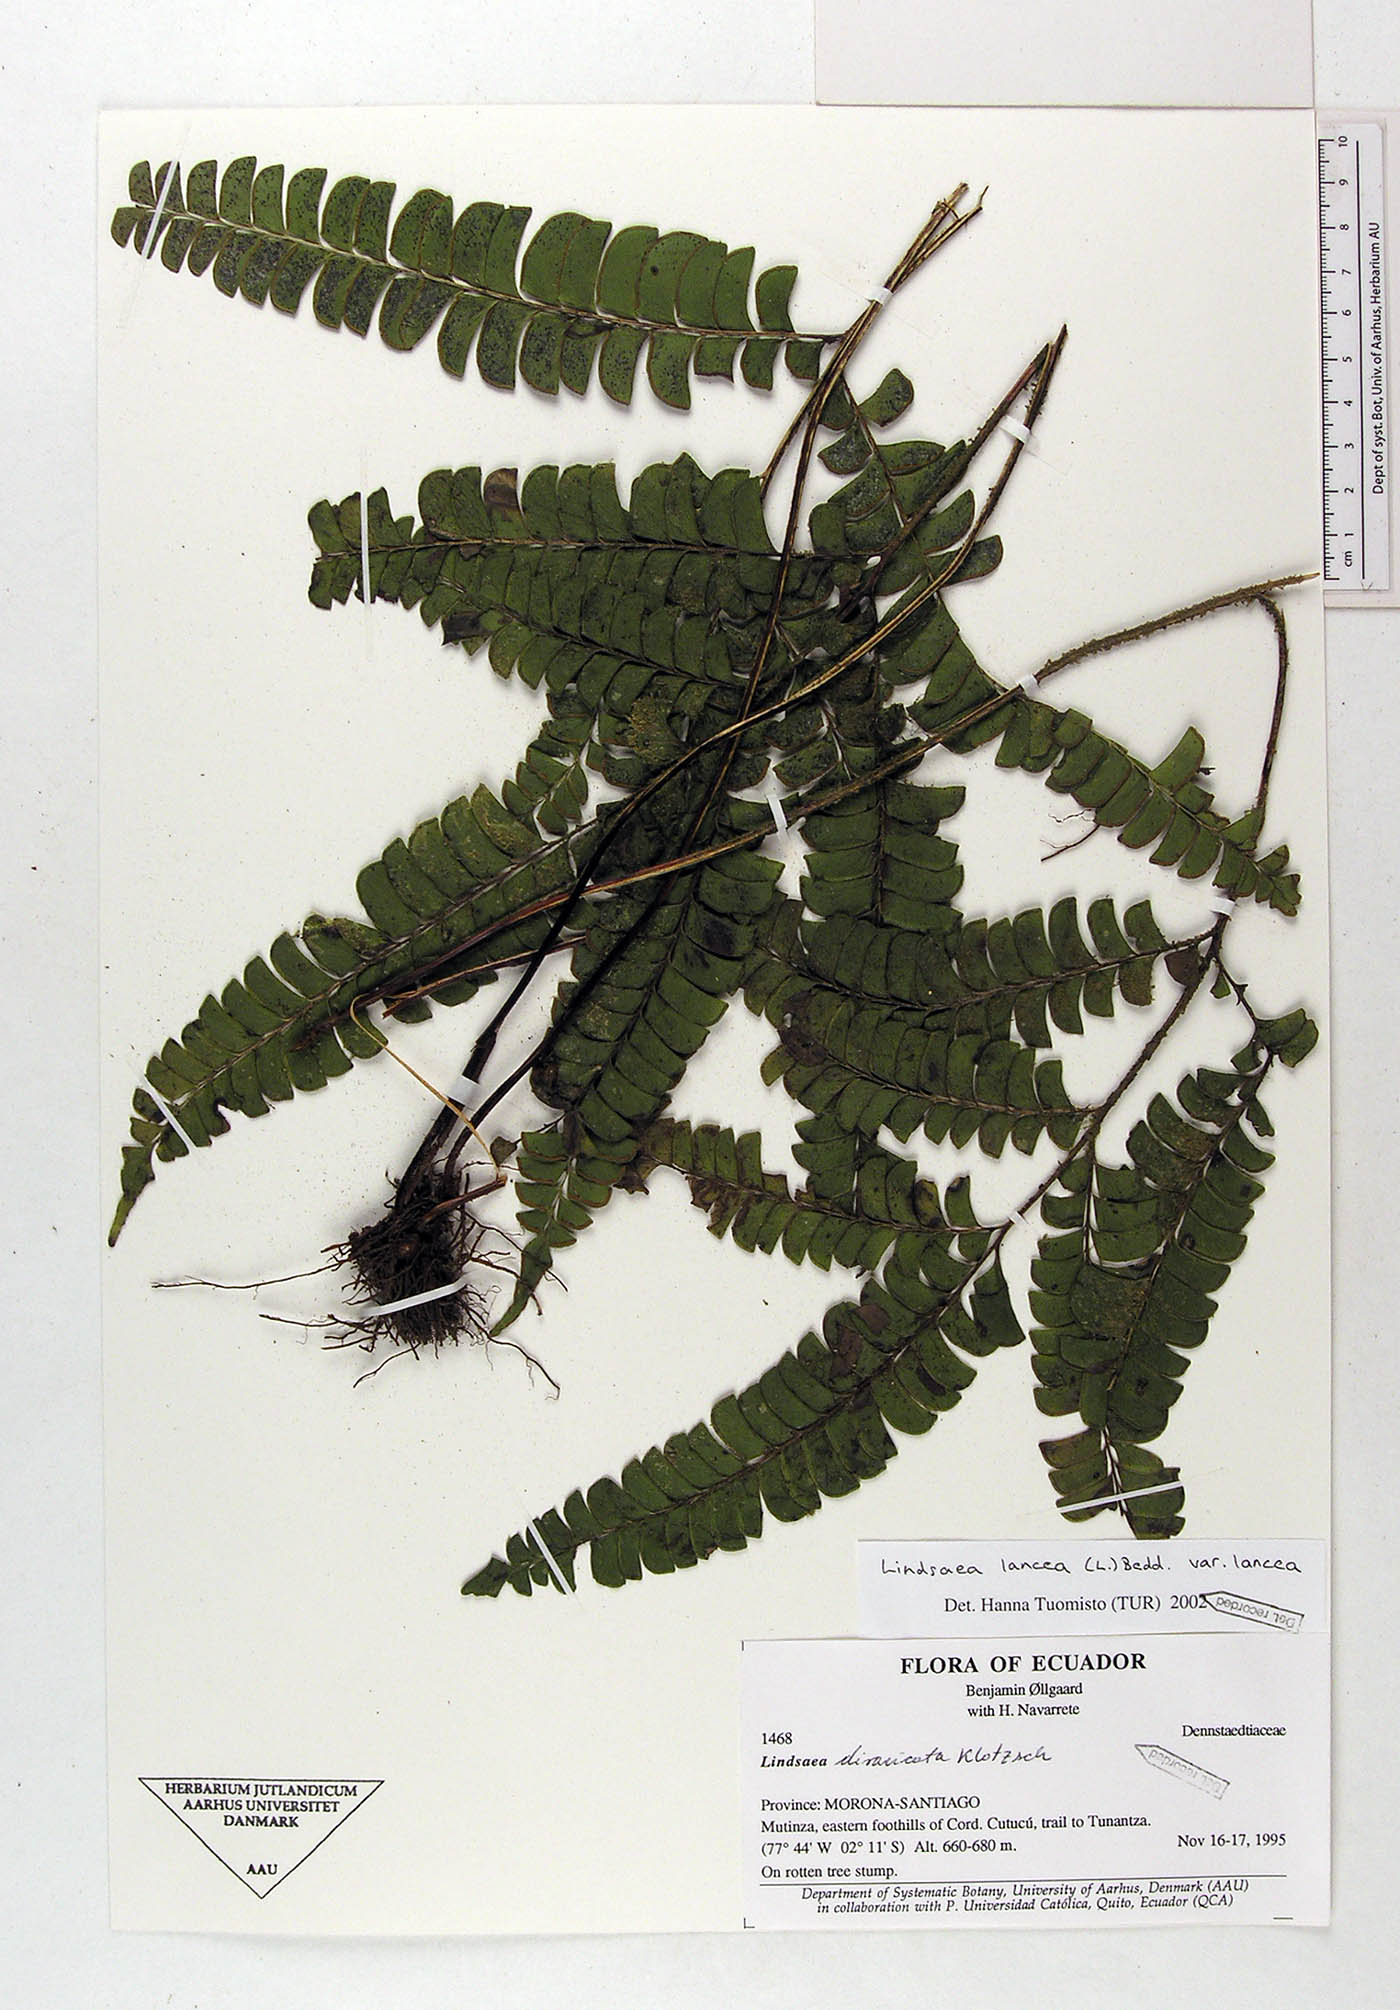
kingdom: Plantae
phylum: Tracheophyta
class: Polypodiopsida
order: Polypodiales
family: Lindsaeaceae
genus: Lindsaea
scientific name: Lindsaea lancea
